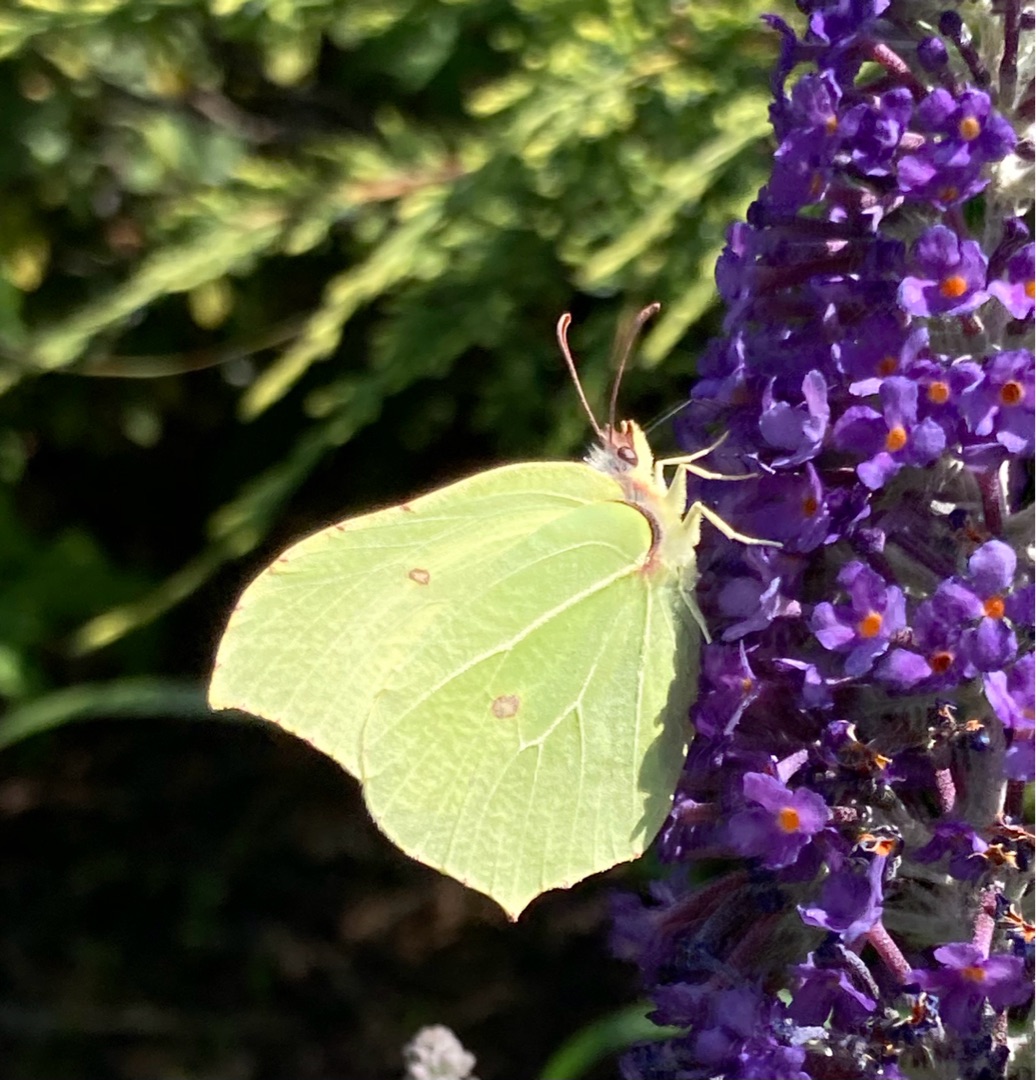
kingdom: Animalia
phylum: Arthropoda
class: Insecta
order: Lepidoptera
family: Pieridae
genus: Gonepteryx
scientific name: Gonepteryx rhamni
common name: Citronsommerfugl
